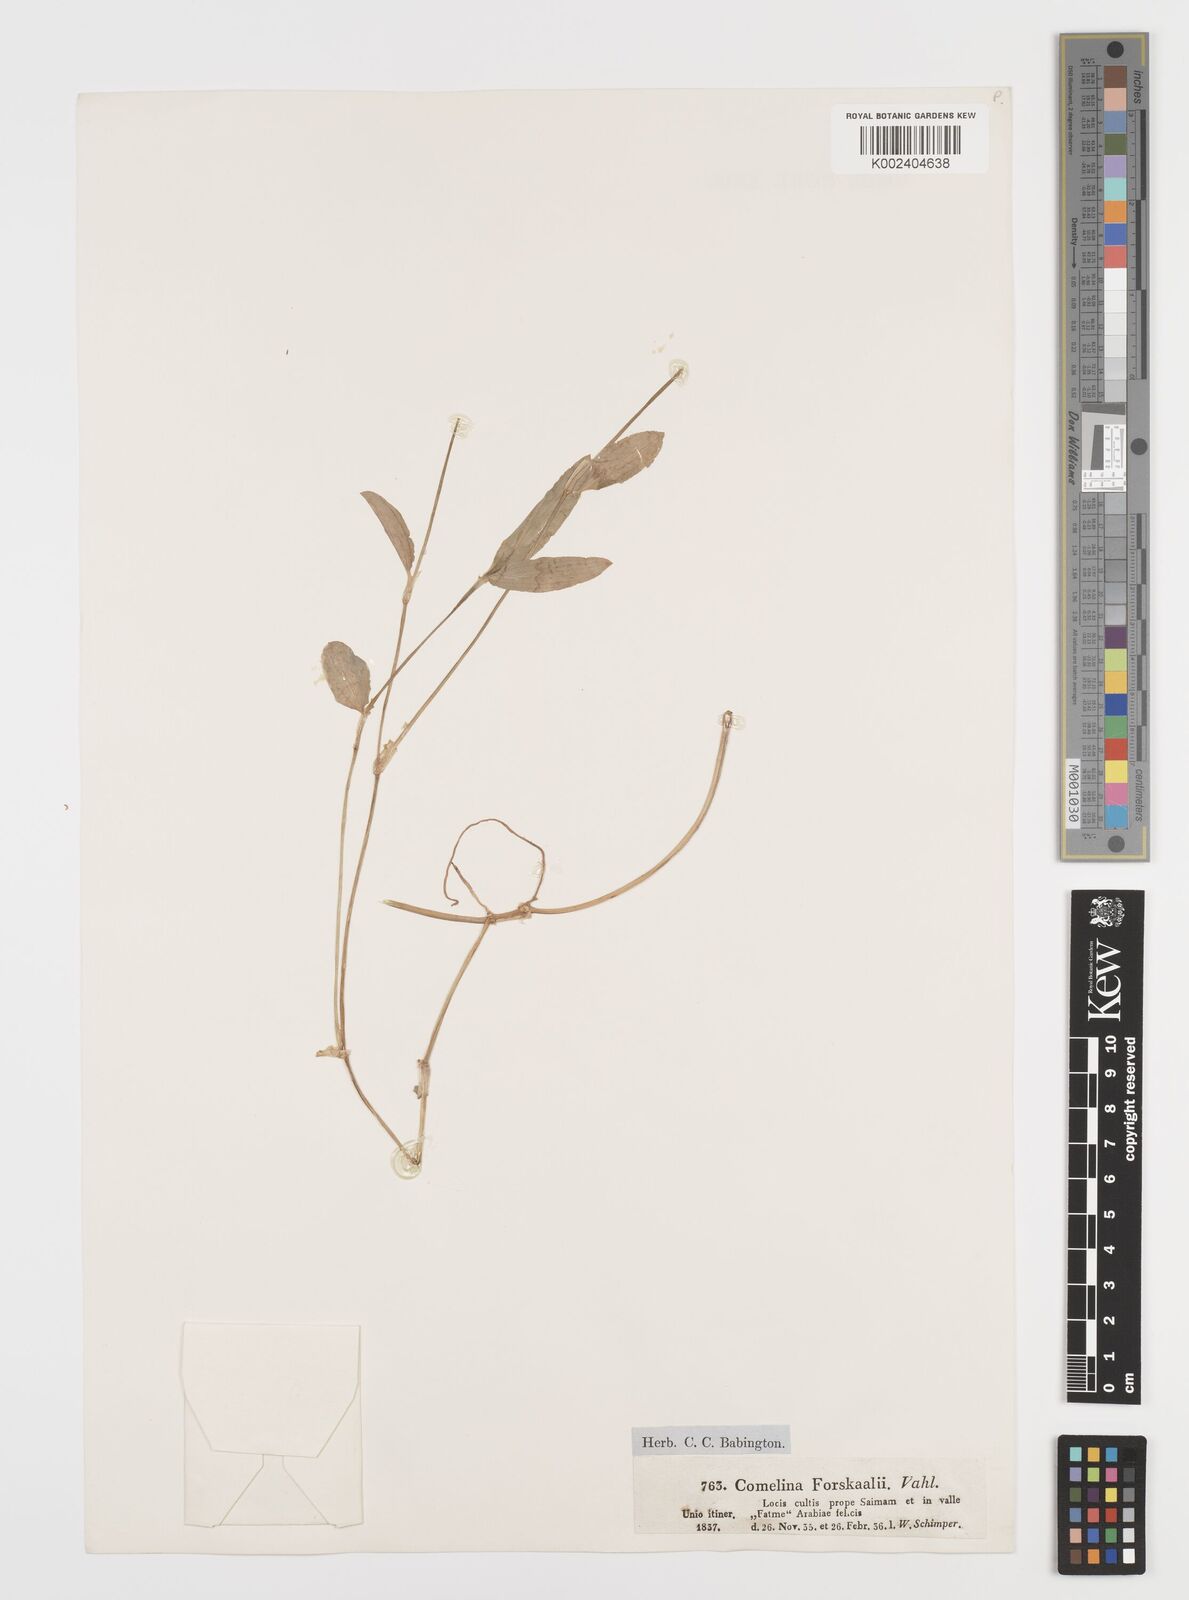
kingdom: Plantae
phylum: Tracheophyta
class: Liliopsida
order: Commelinales
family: Commelinaceae
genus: Commelina
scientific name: Commelina forskaolii
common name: Rat's ear
